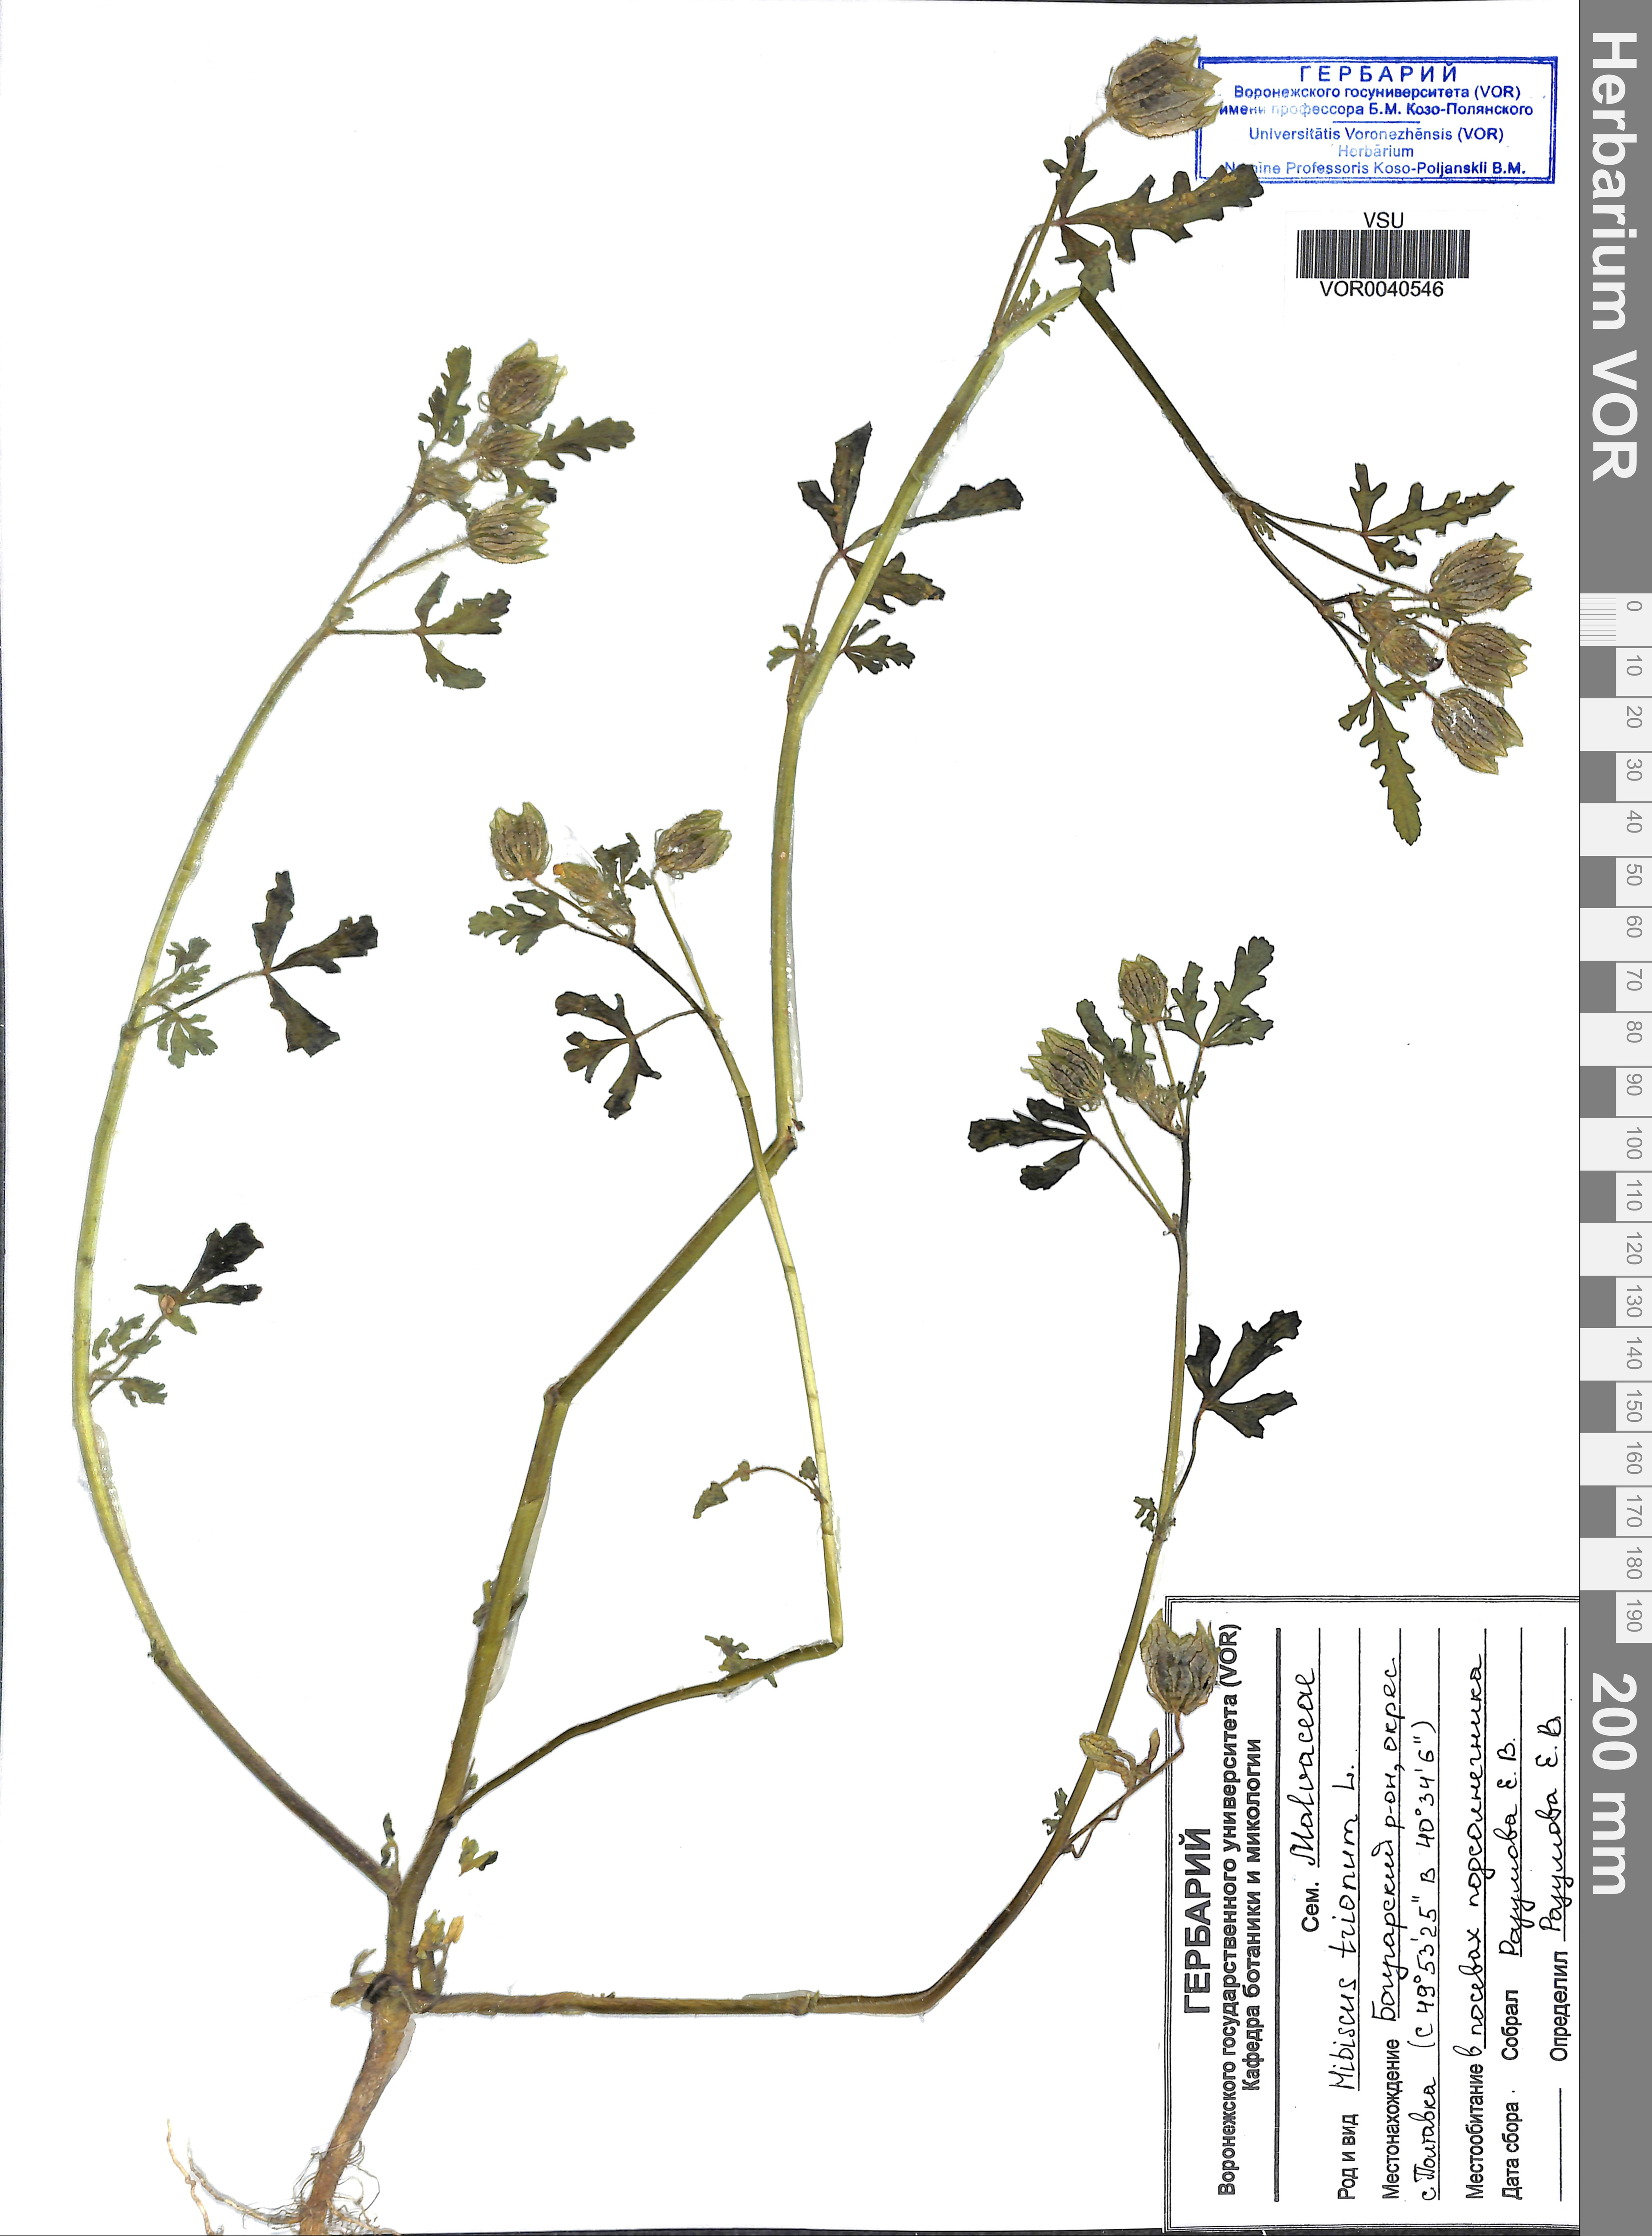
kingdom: Plantae
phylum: Tracheophyta
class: Magnoliopsida
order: Malvales
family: Malvaceae
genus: Hibiscus
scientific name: Hibiscus trionum
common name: Bladder ketmia
